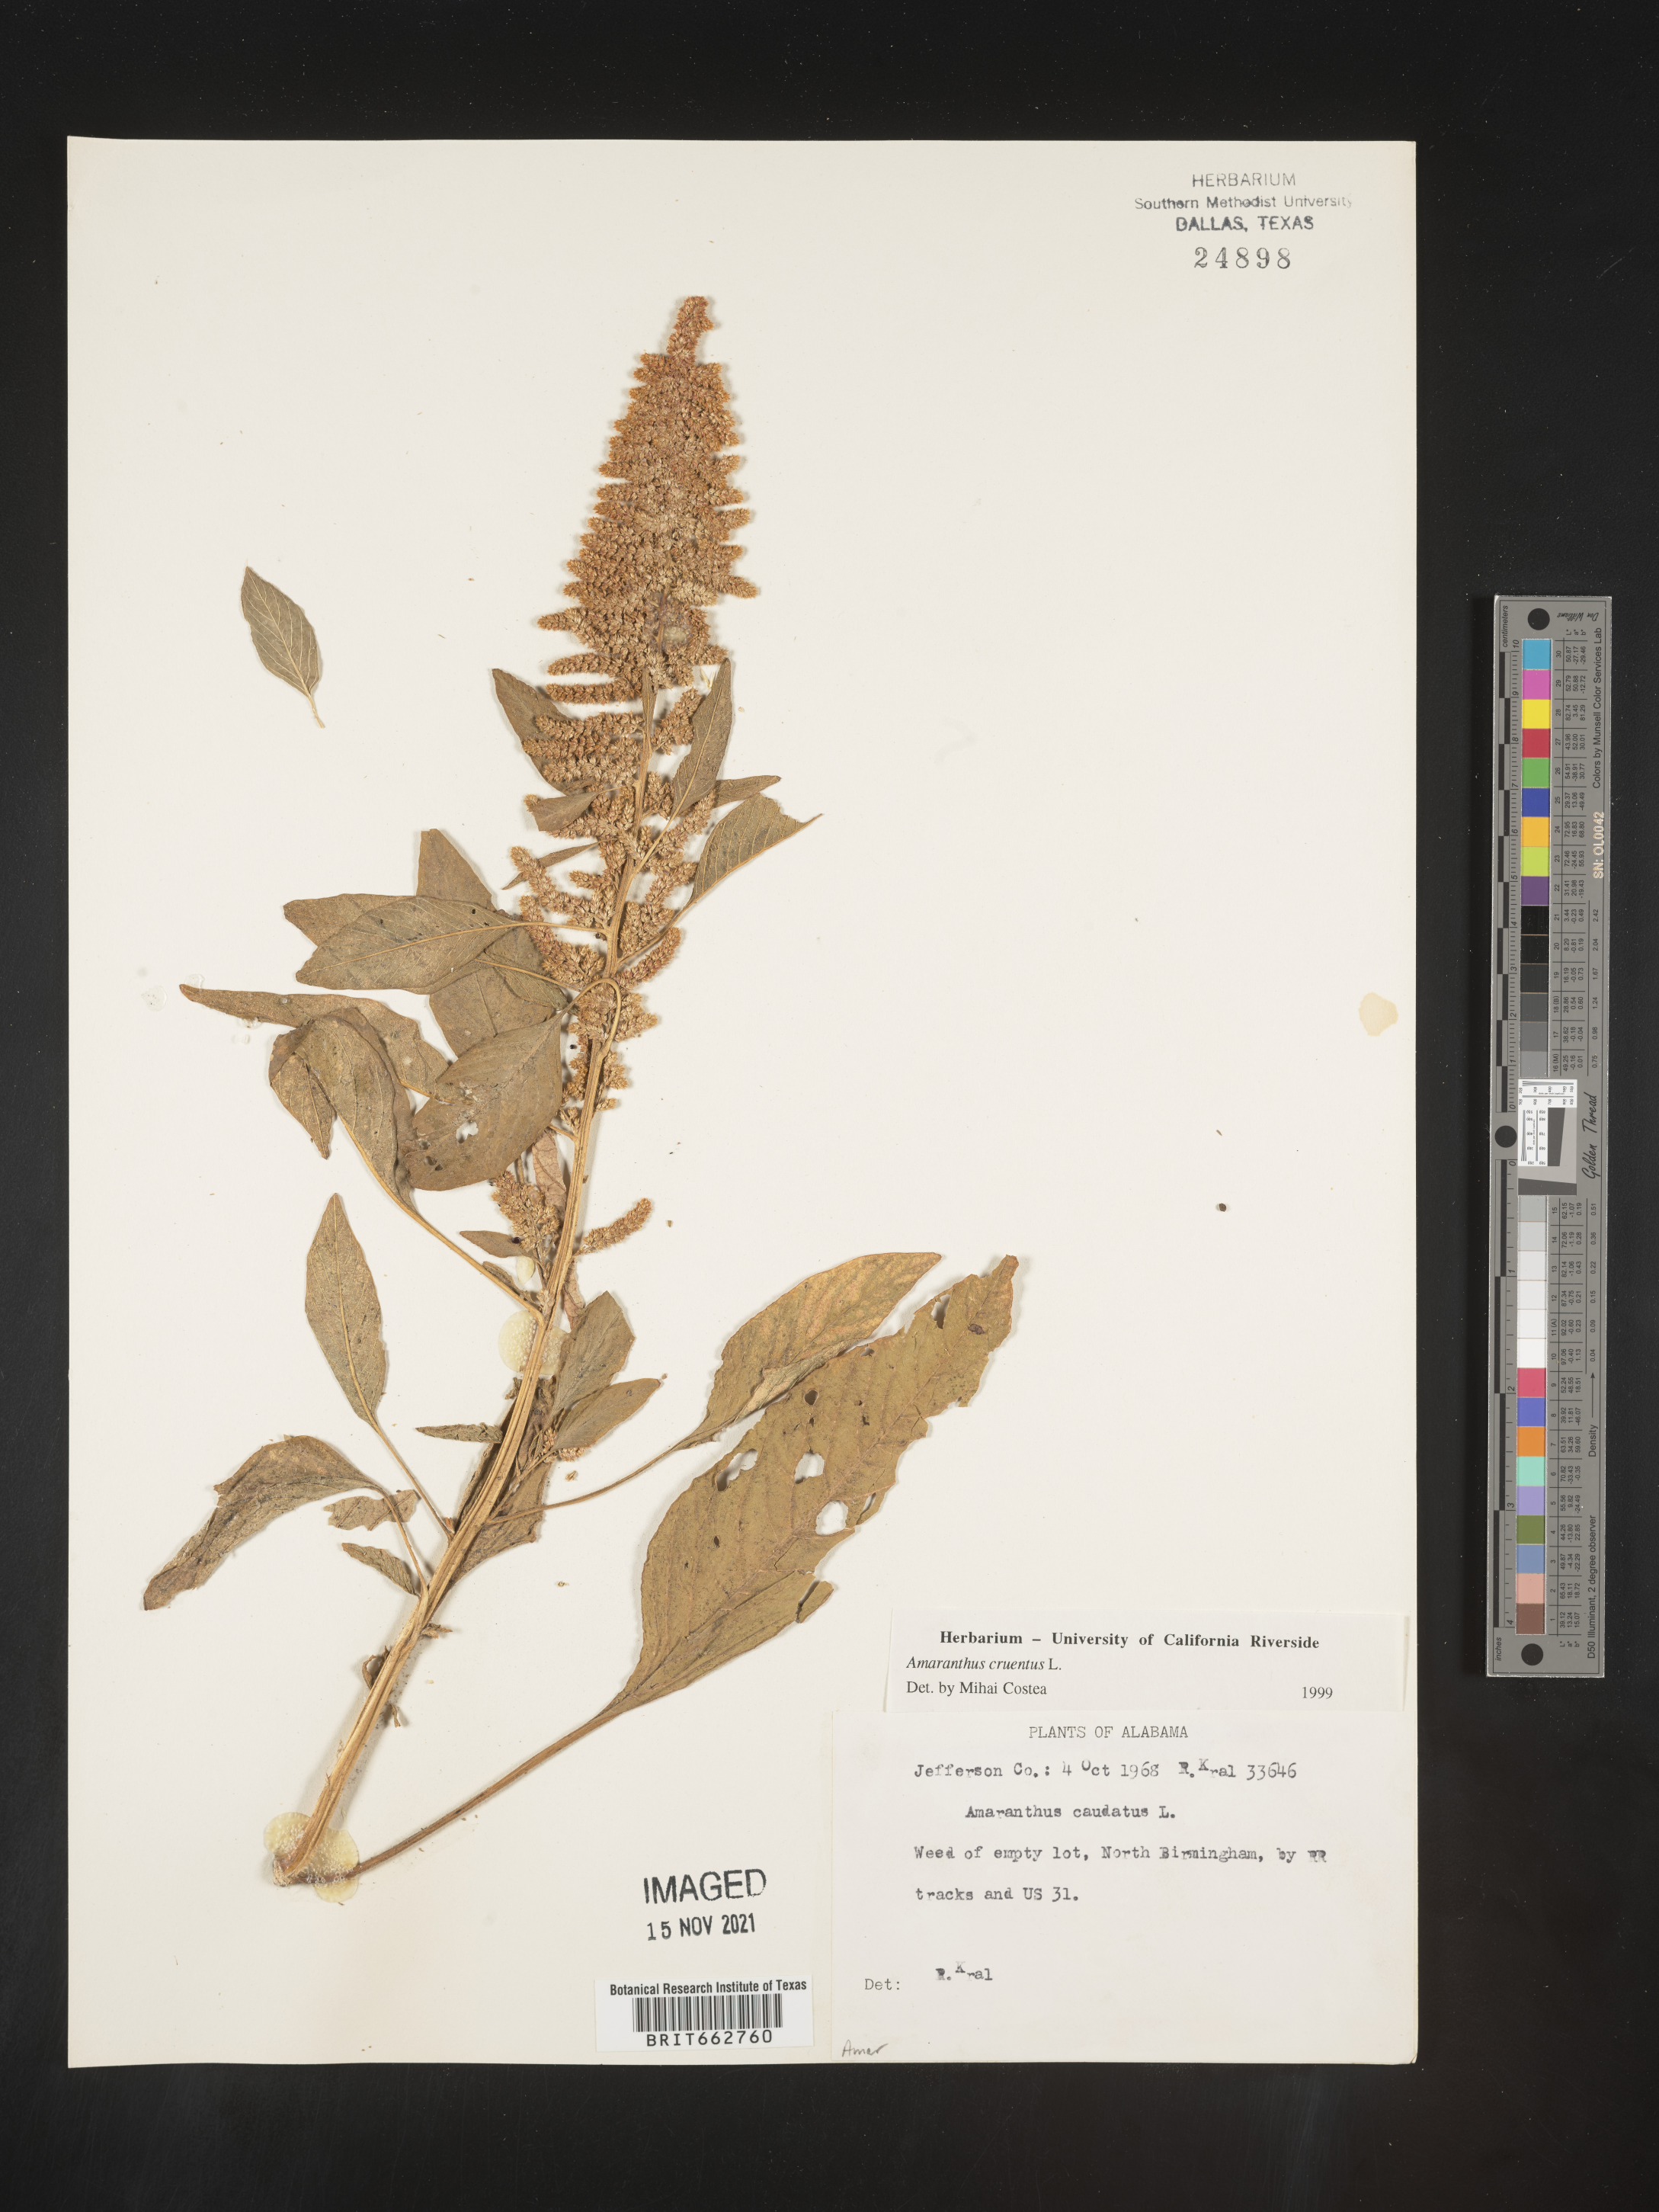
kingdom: Plantae
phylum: Tracheophyta
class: Magnoliopsida
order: Caryophyllales
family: Amaranthaceae
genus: Amaranthus
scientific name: Amaranthus cannabinus
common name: Salt-marsh water-hemp
